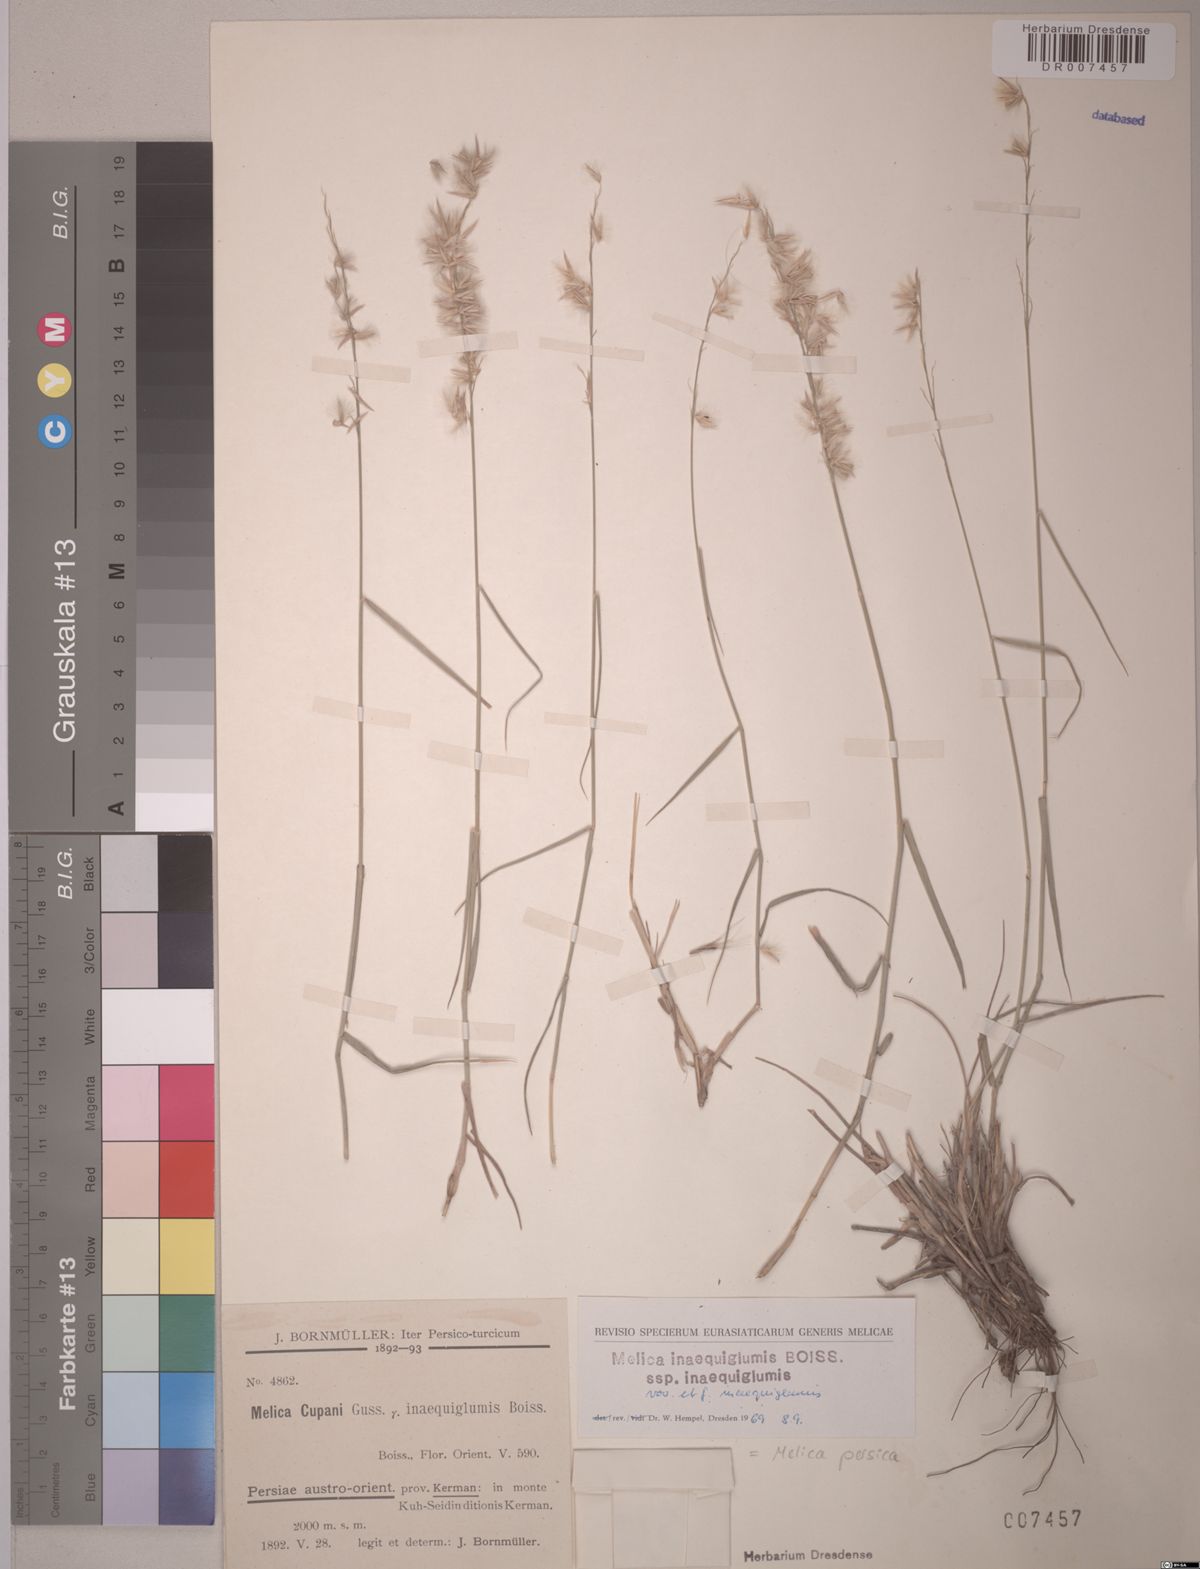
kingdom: Plantae
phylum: Tracheophyta
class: Liliopsida
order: Poales
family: Poaceae
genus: Melica
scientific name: Melica persica
